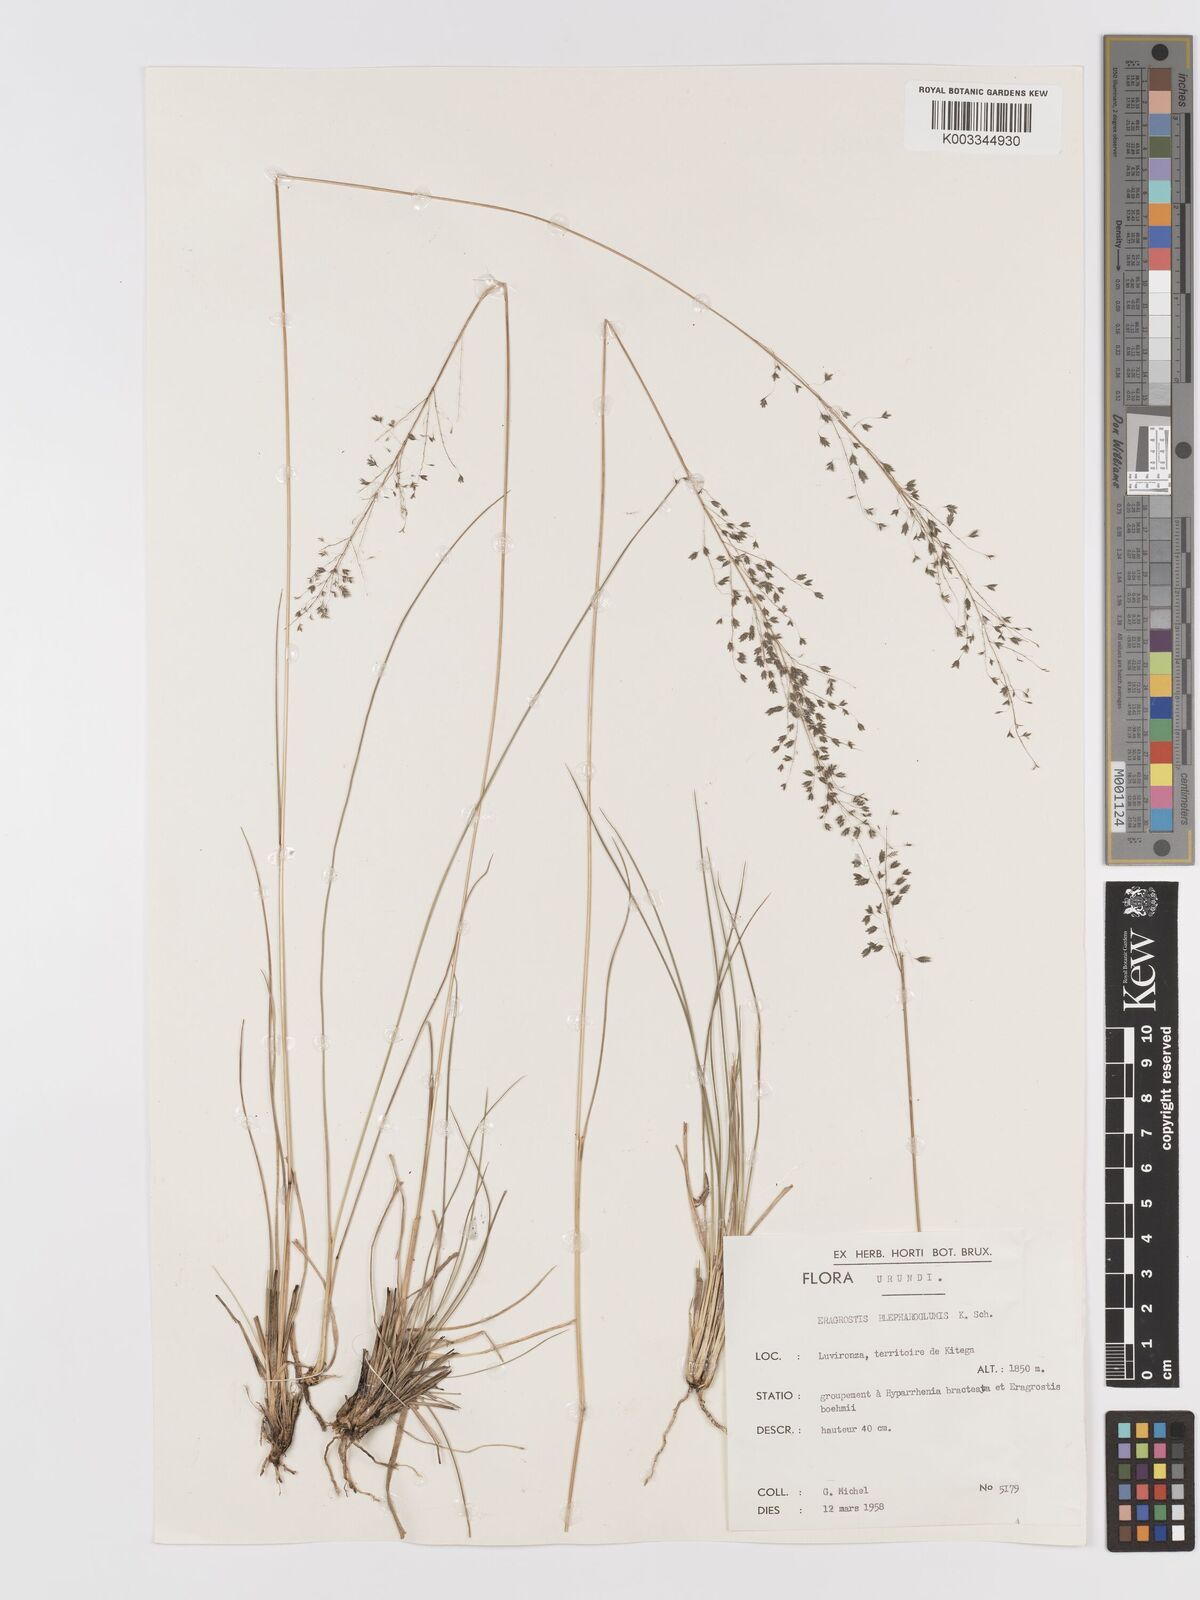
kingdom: Plantae
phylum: Tracheophyta
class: Liliopsida
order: Poales
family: Poaceae
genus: Eragrostis
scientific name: Eragrostis olivacea
